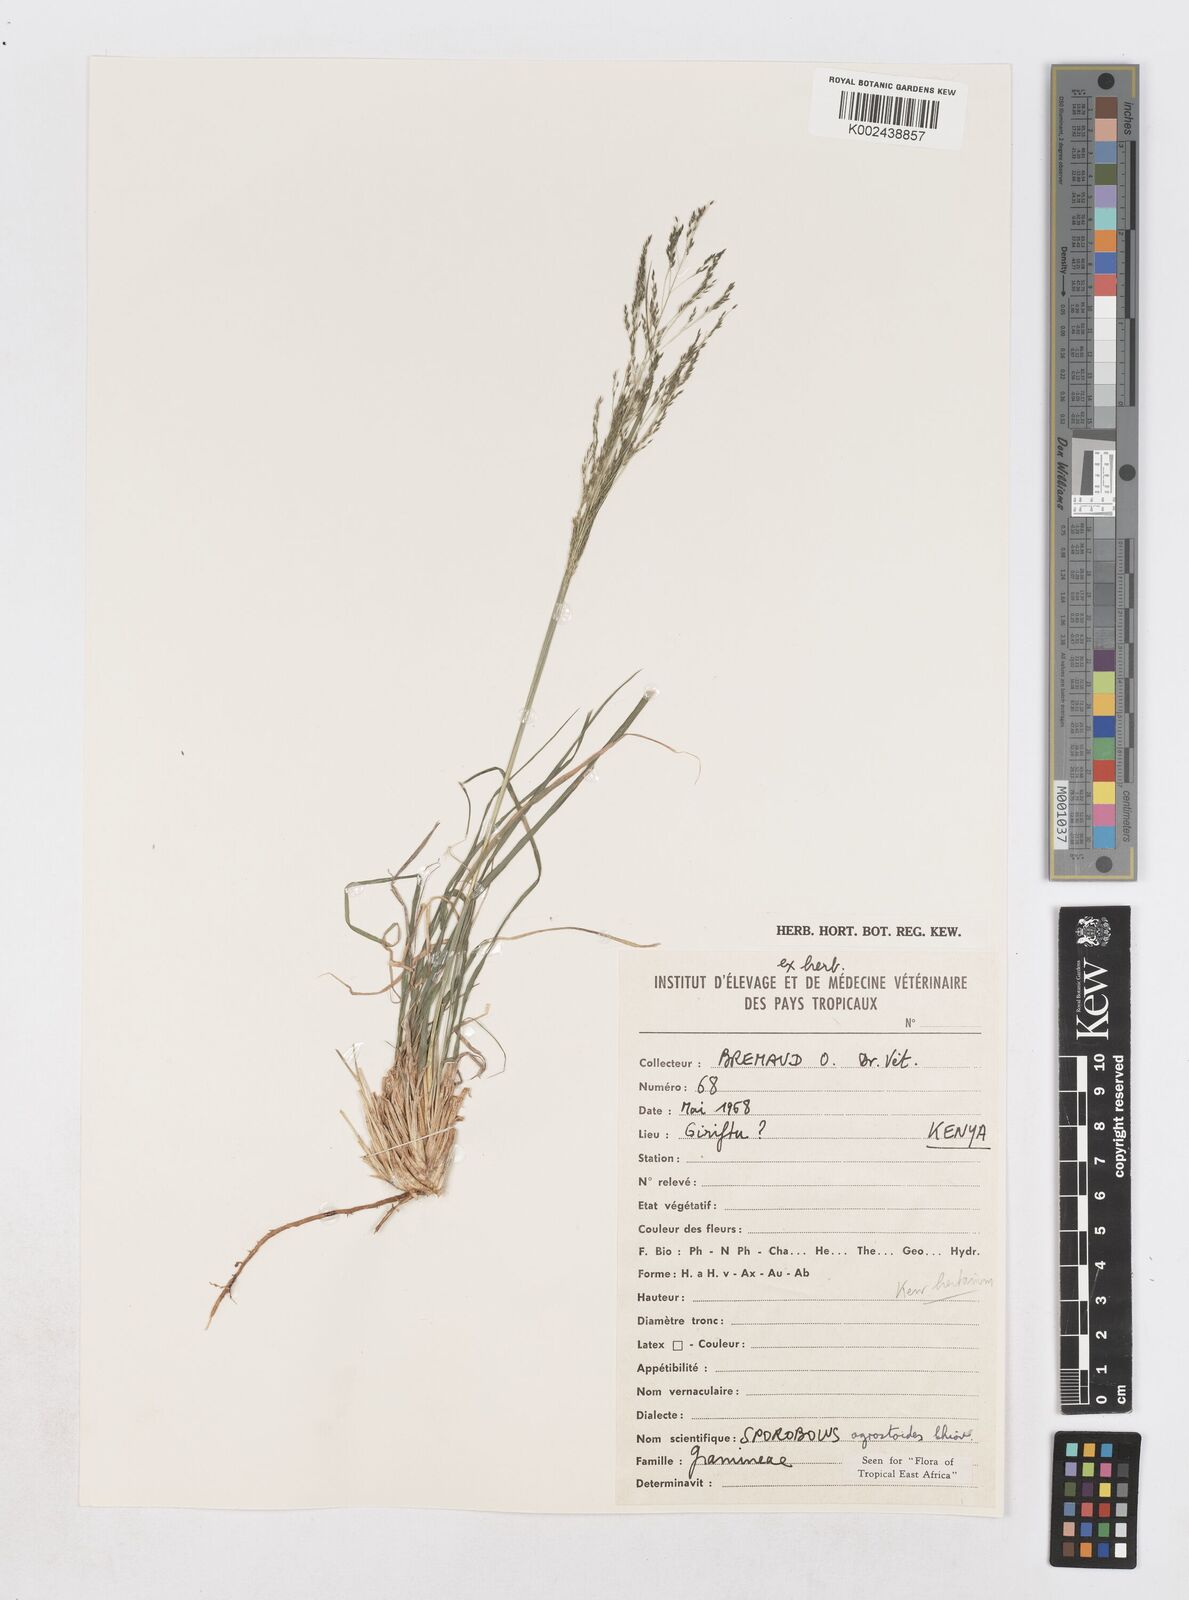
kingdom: Plantae
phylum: Tracheophyta
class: Liliopsida
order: Poales
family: Poaceae
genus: Sporobolus
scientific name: Sporobolus agrostoides
